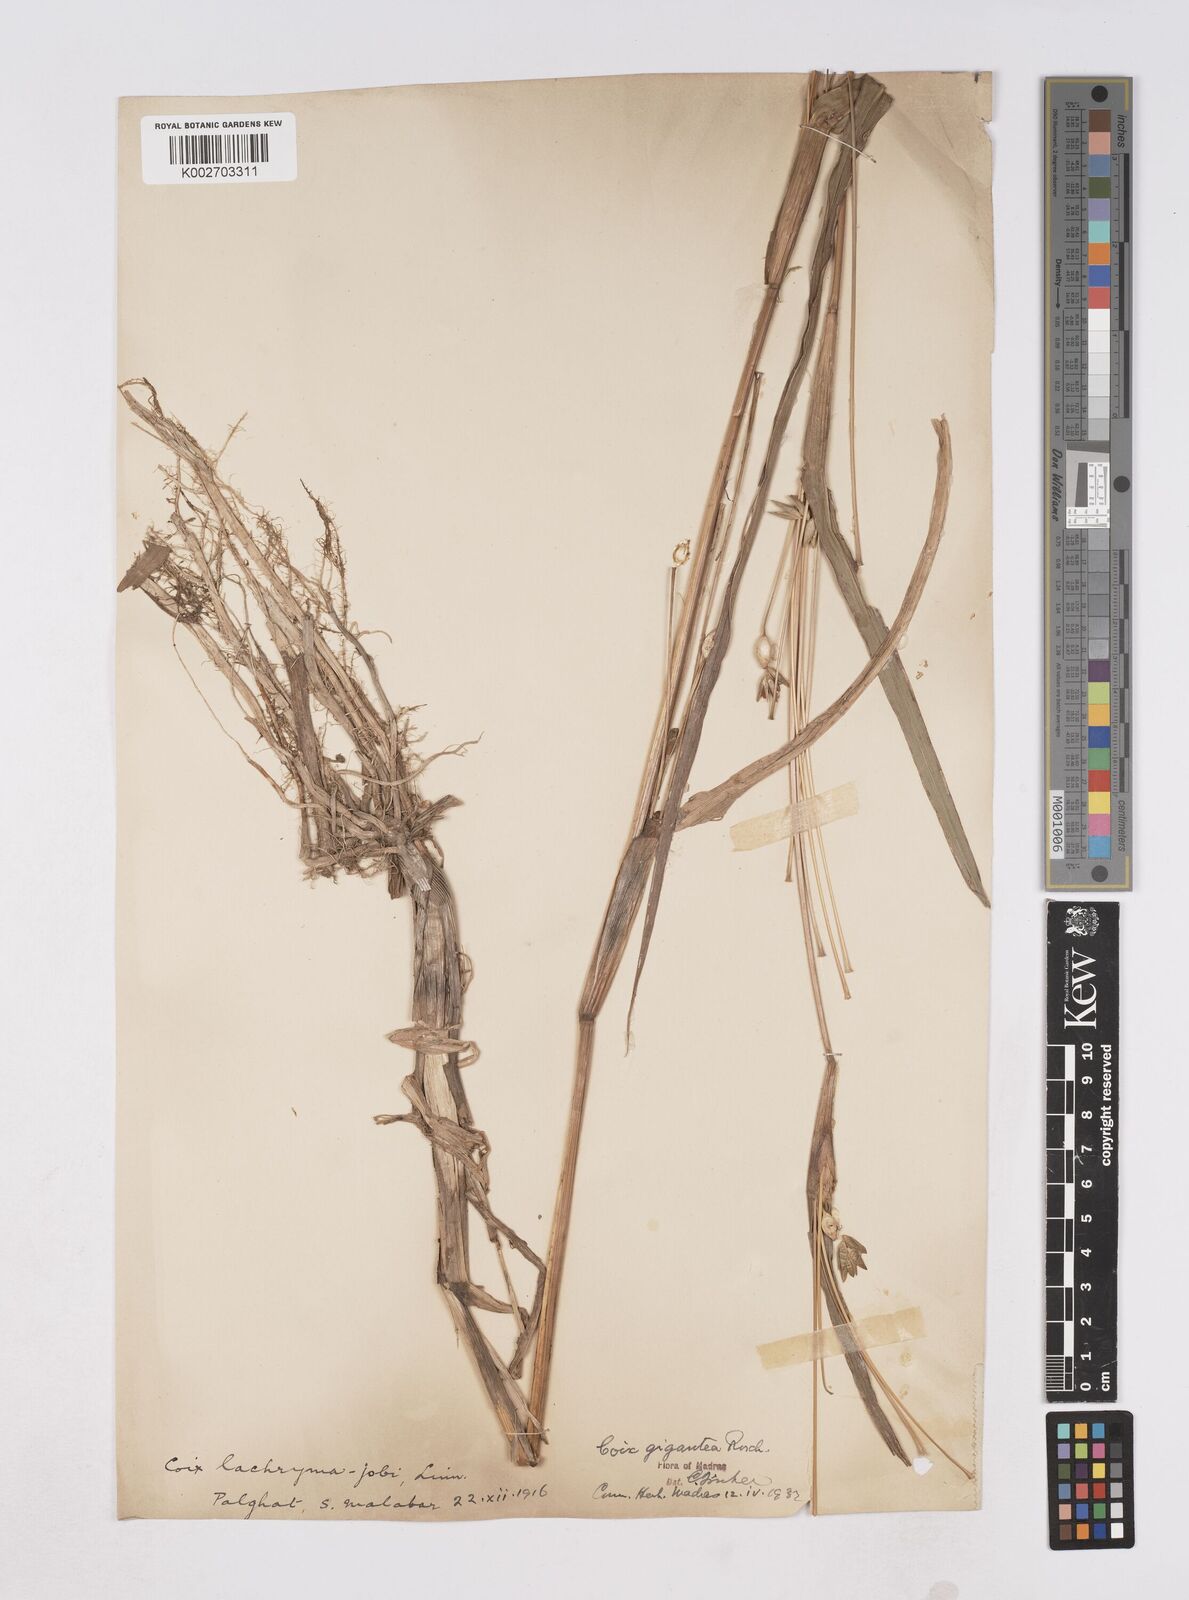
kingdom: Plantae
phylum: Tracheophyta
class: Liliopsida
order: Poales
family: Poaceae
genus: Polytoca
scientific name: Polytoca gigantea
